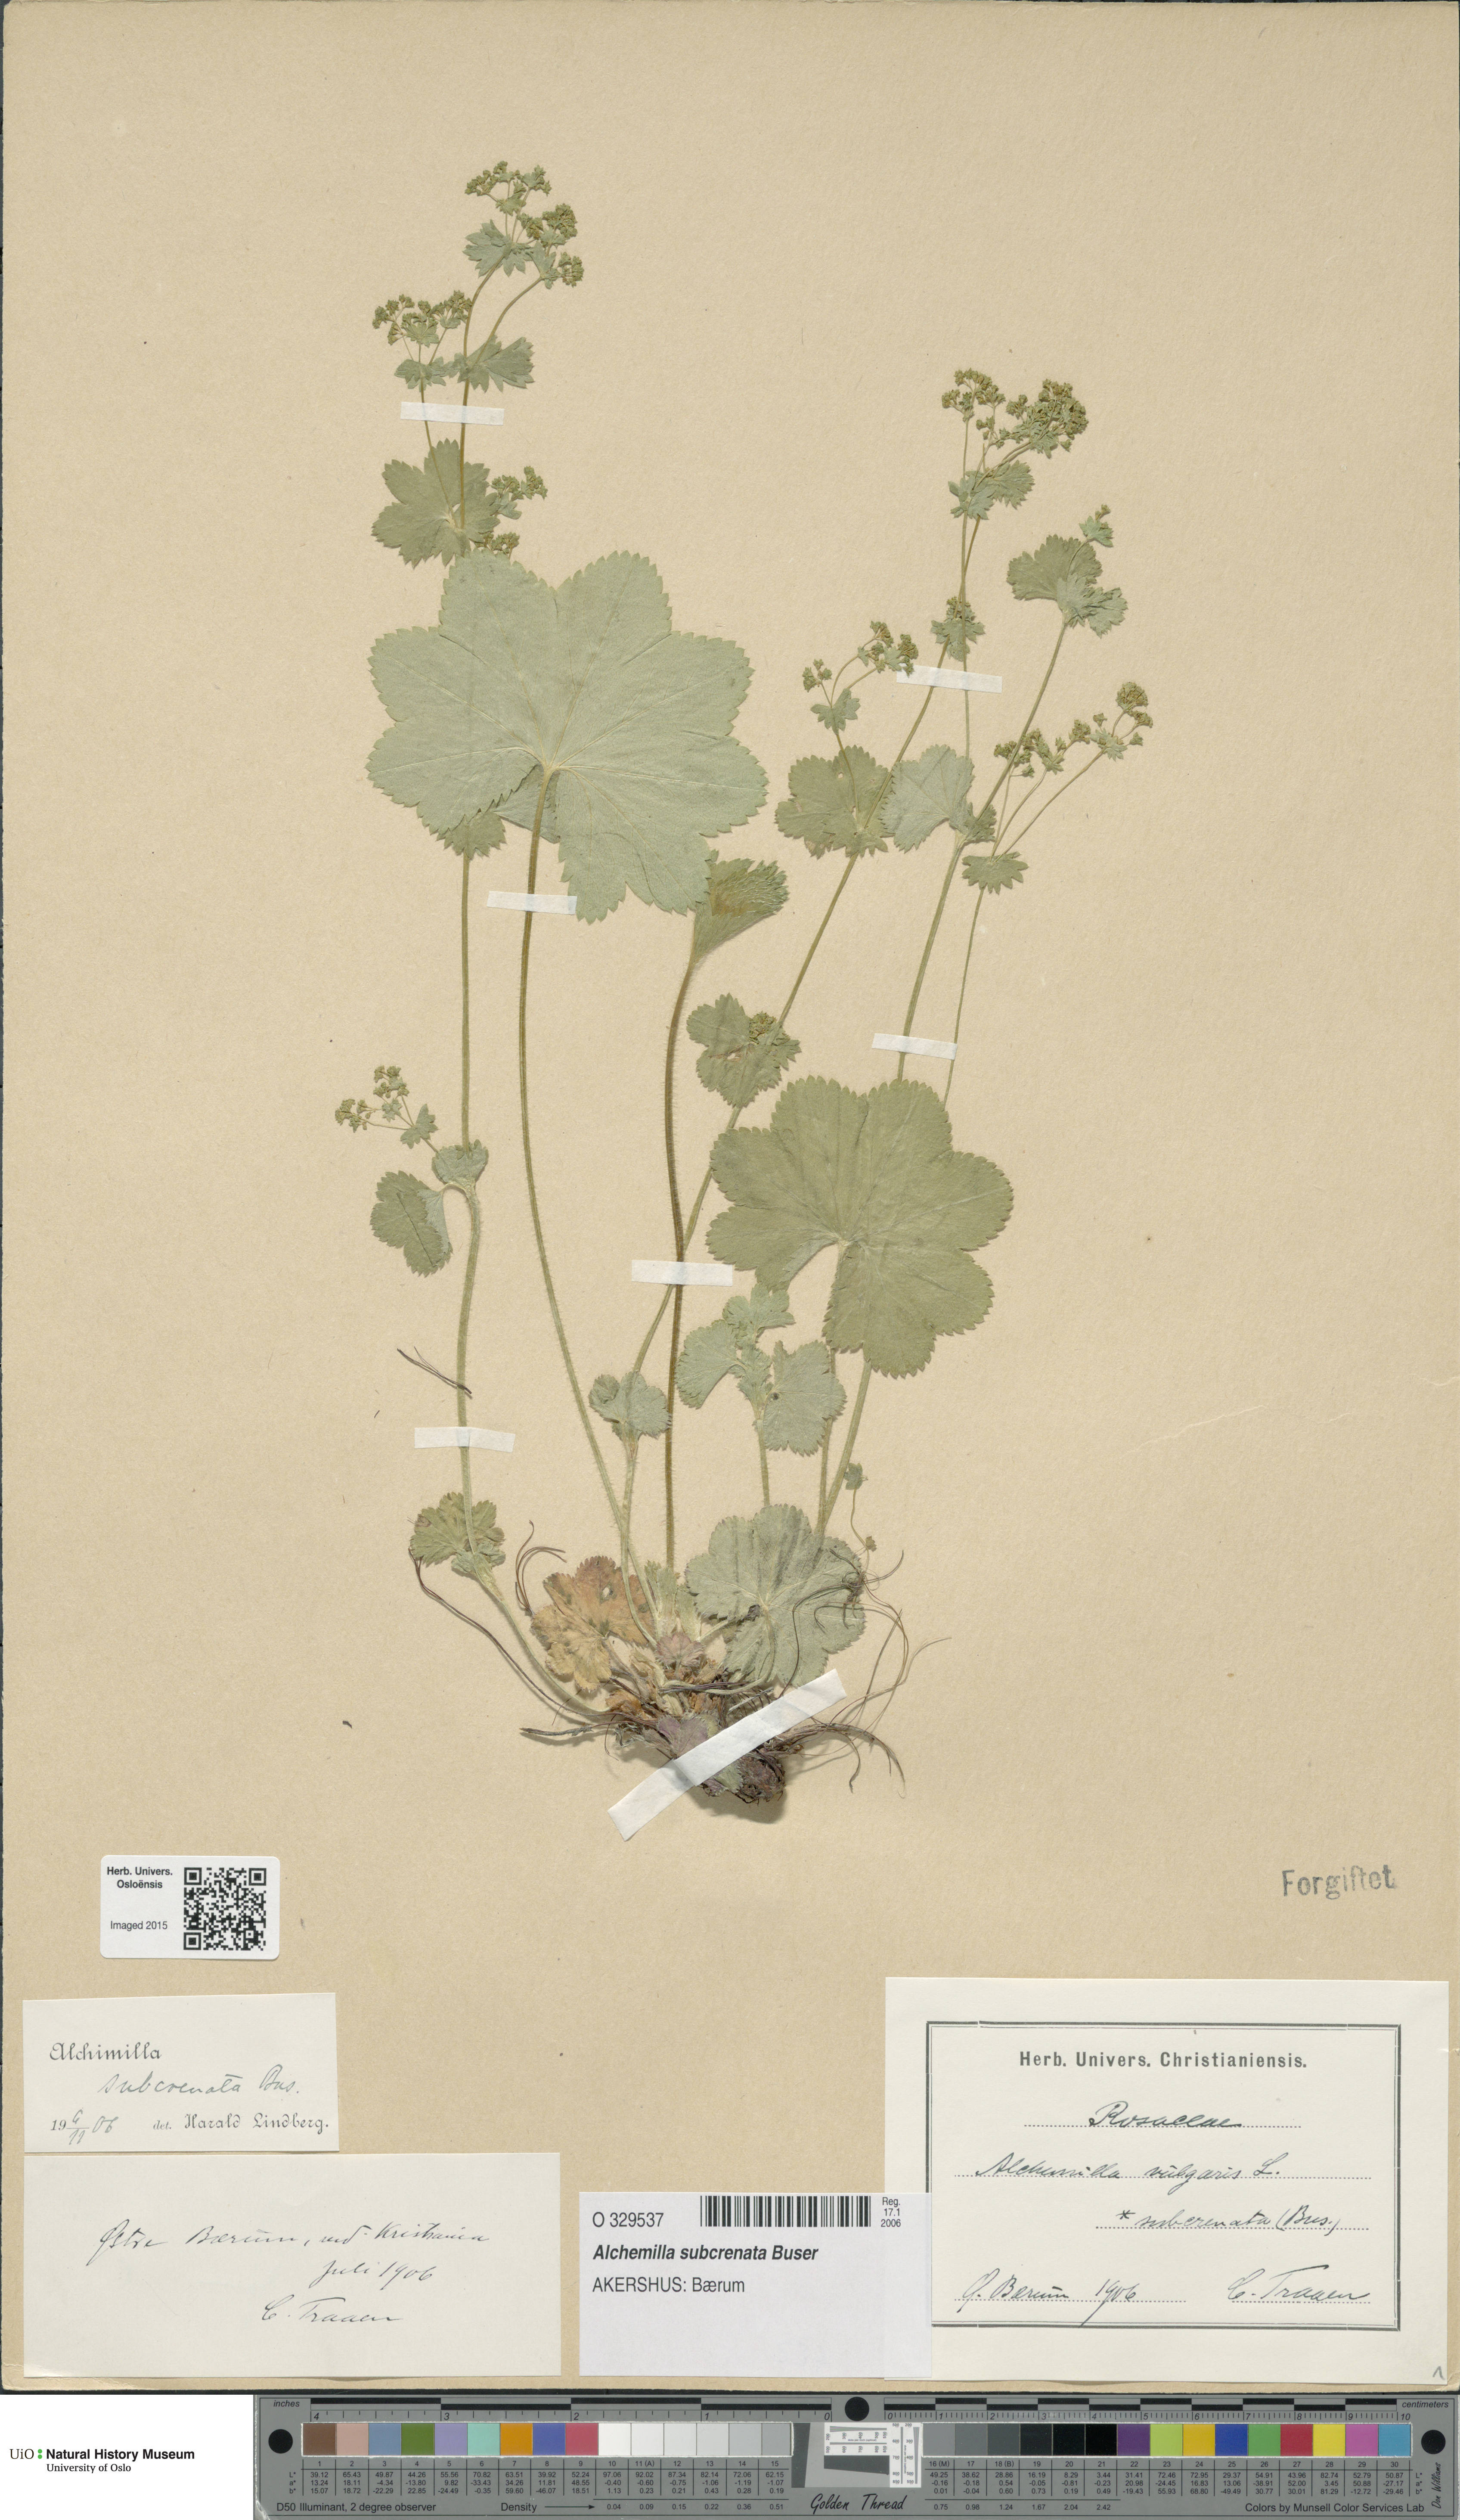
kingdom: Plantae
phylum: Tracheophyta
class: Magnoliopsida
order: Rosales
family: Rosaceae
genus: Alchemilla
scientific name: Alchemilla subcrenata
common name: Broadtooth lady's mantle
